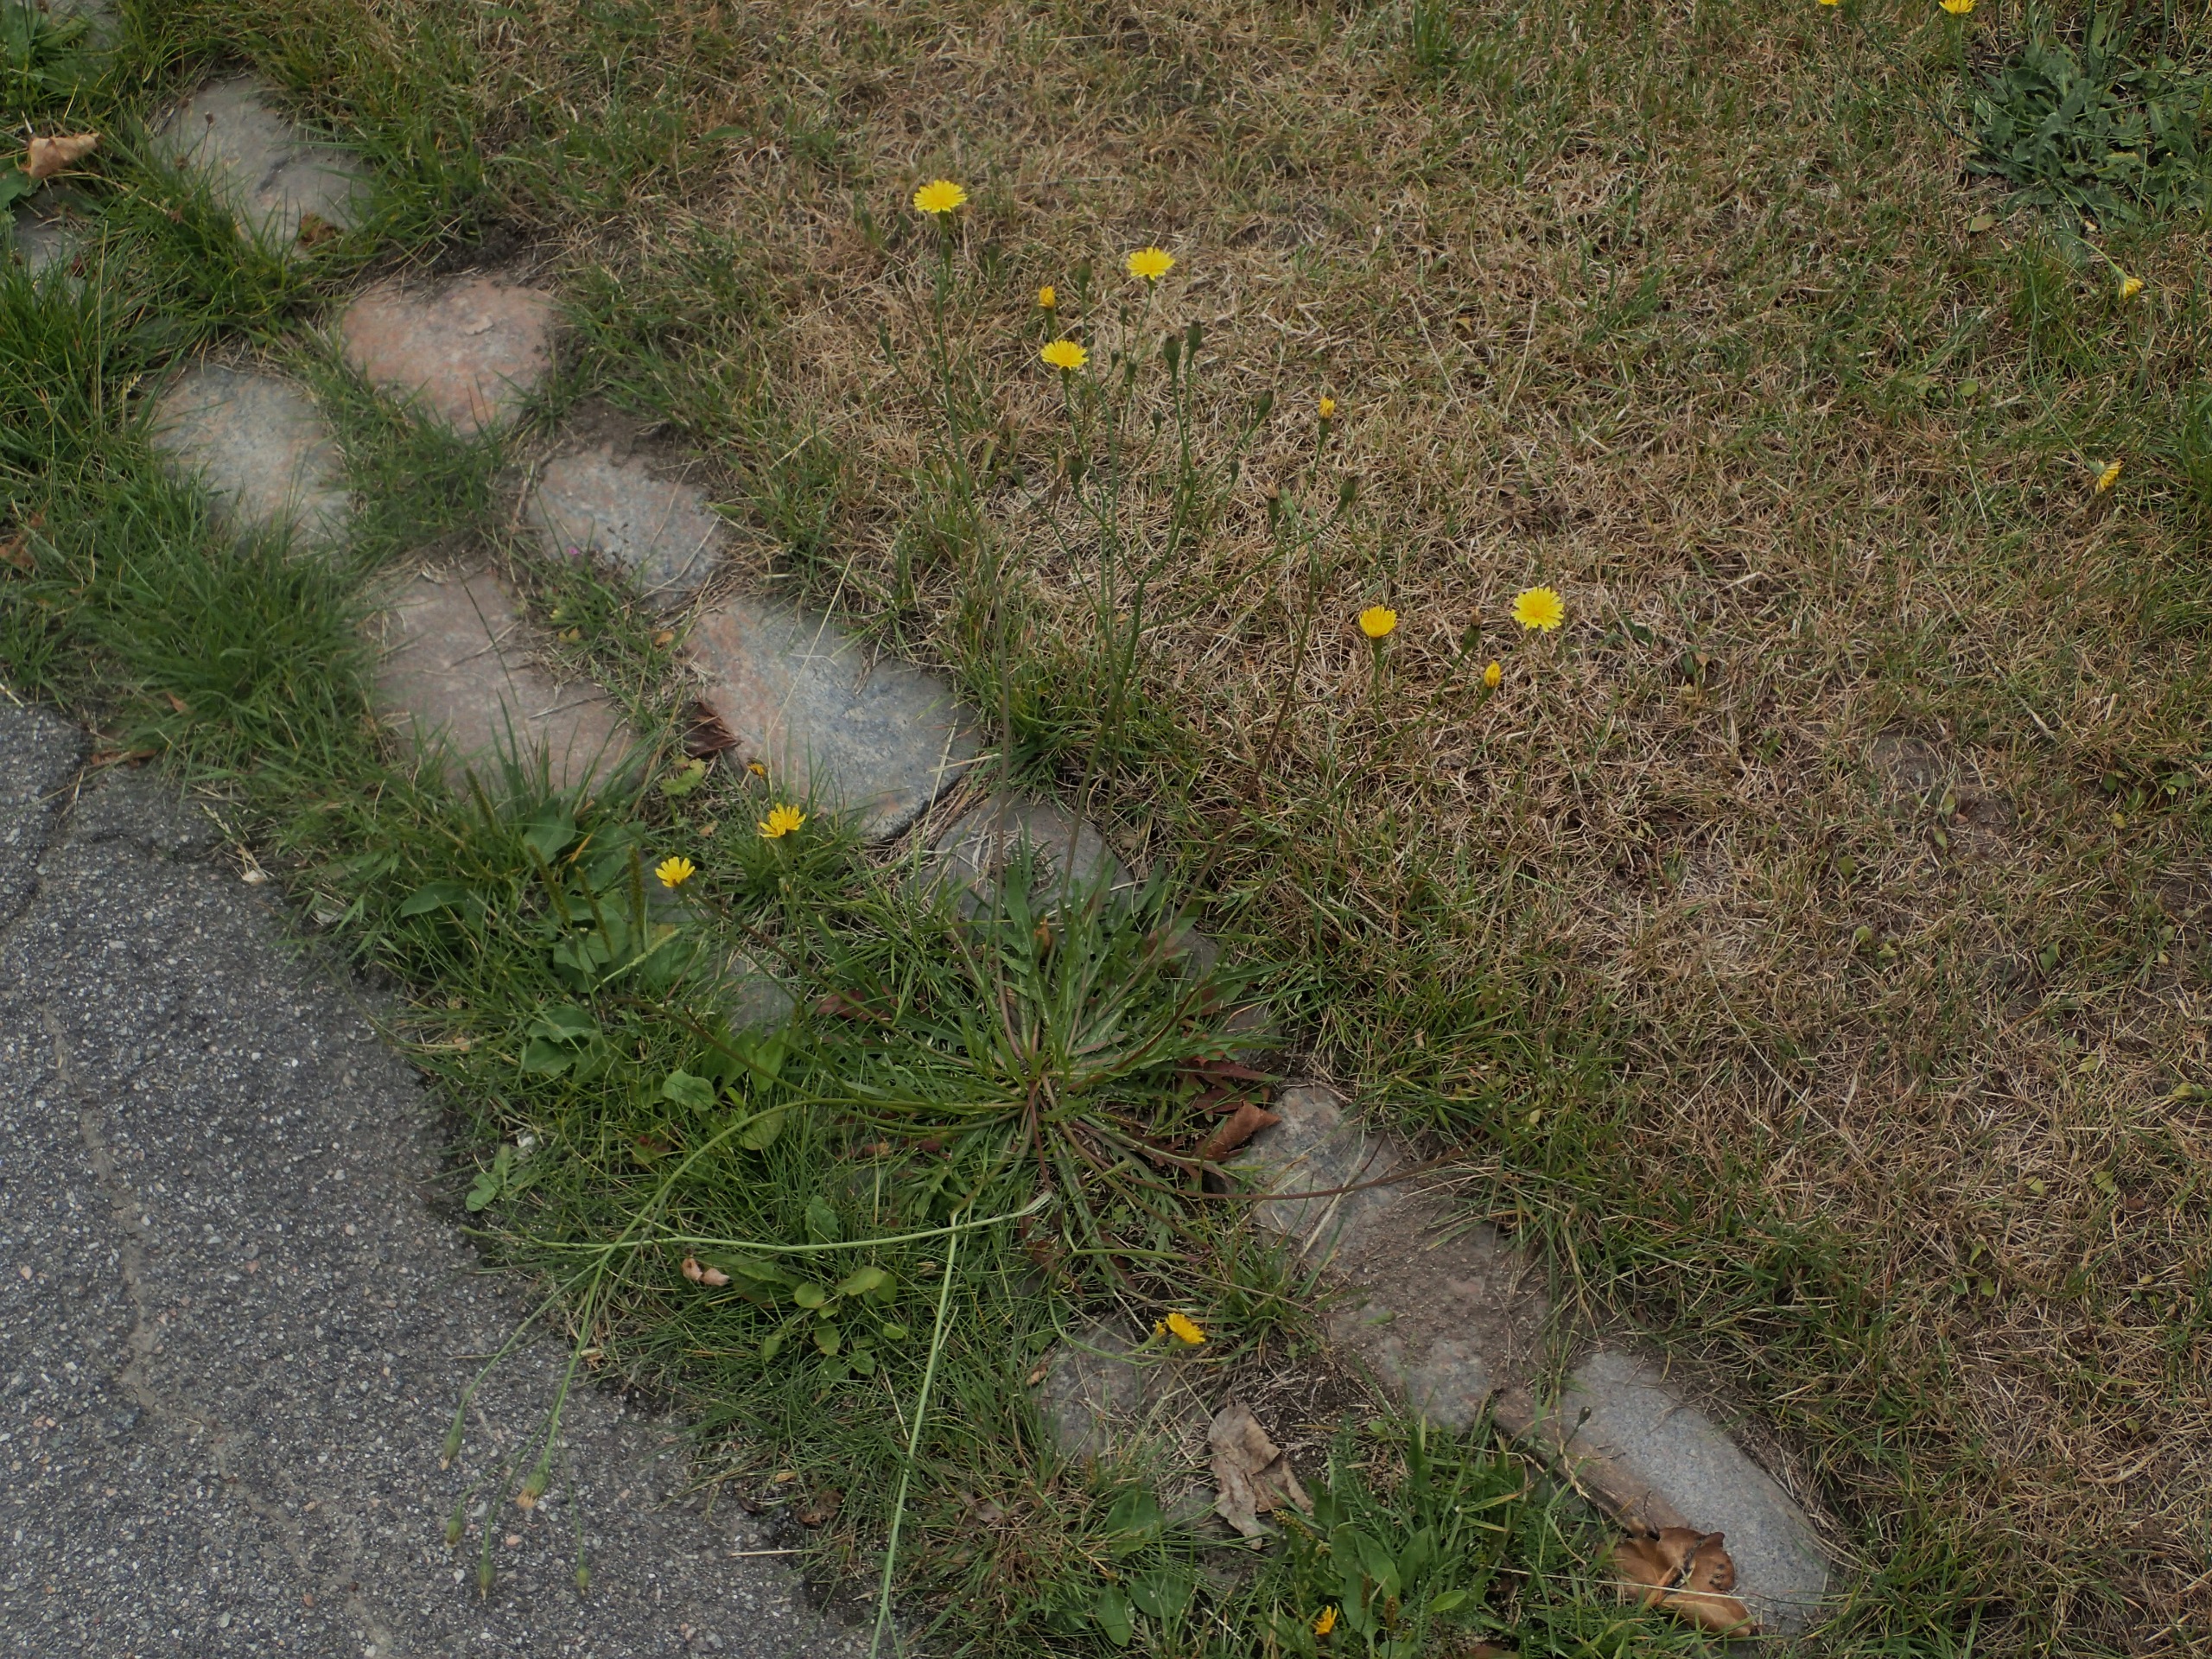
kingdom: Plantae
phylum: Tracheophyta
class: Magnoliopsida
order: Asterales
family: Asteraceae
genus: Scorzoneroides
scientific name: Scorzoneroides autumnalis
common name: Høst-borst
